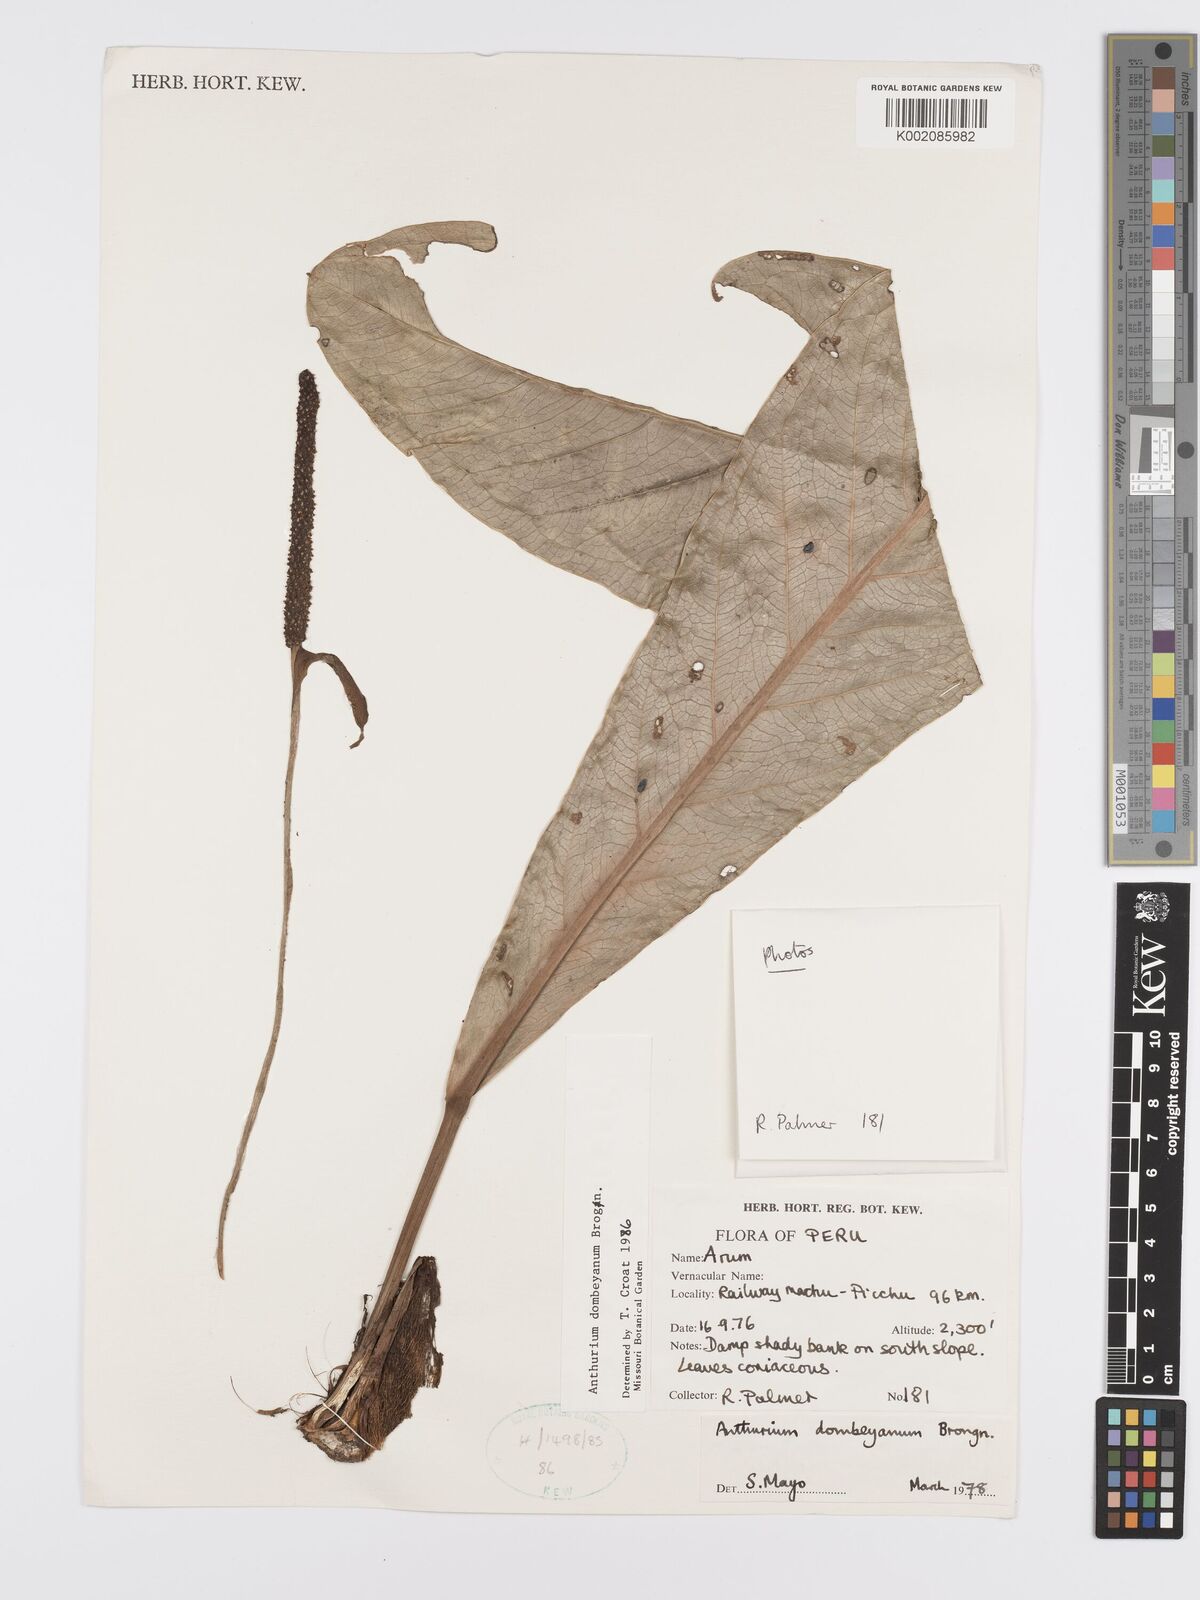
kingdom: Plantae
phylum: Tracheophyta
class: Liliopsida
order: Alismatales
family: Araceae
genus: Anthurium
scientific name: Anthurium dombeyanum
